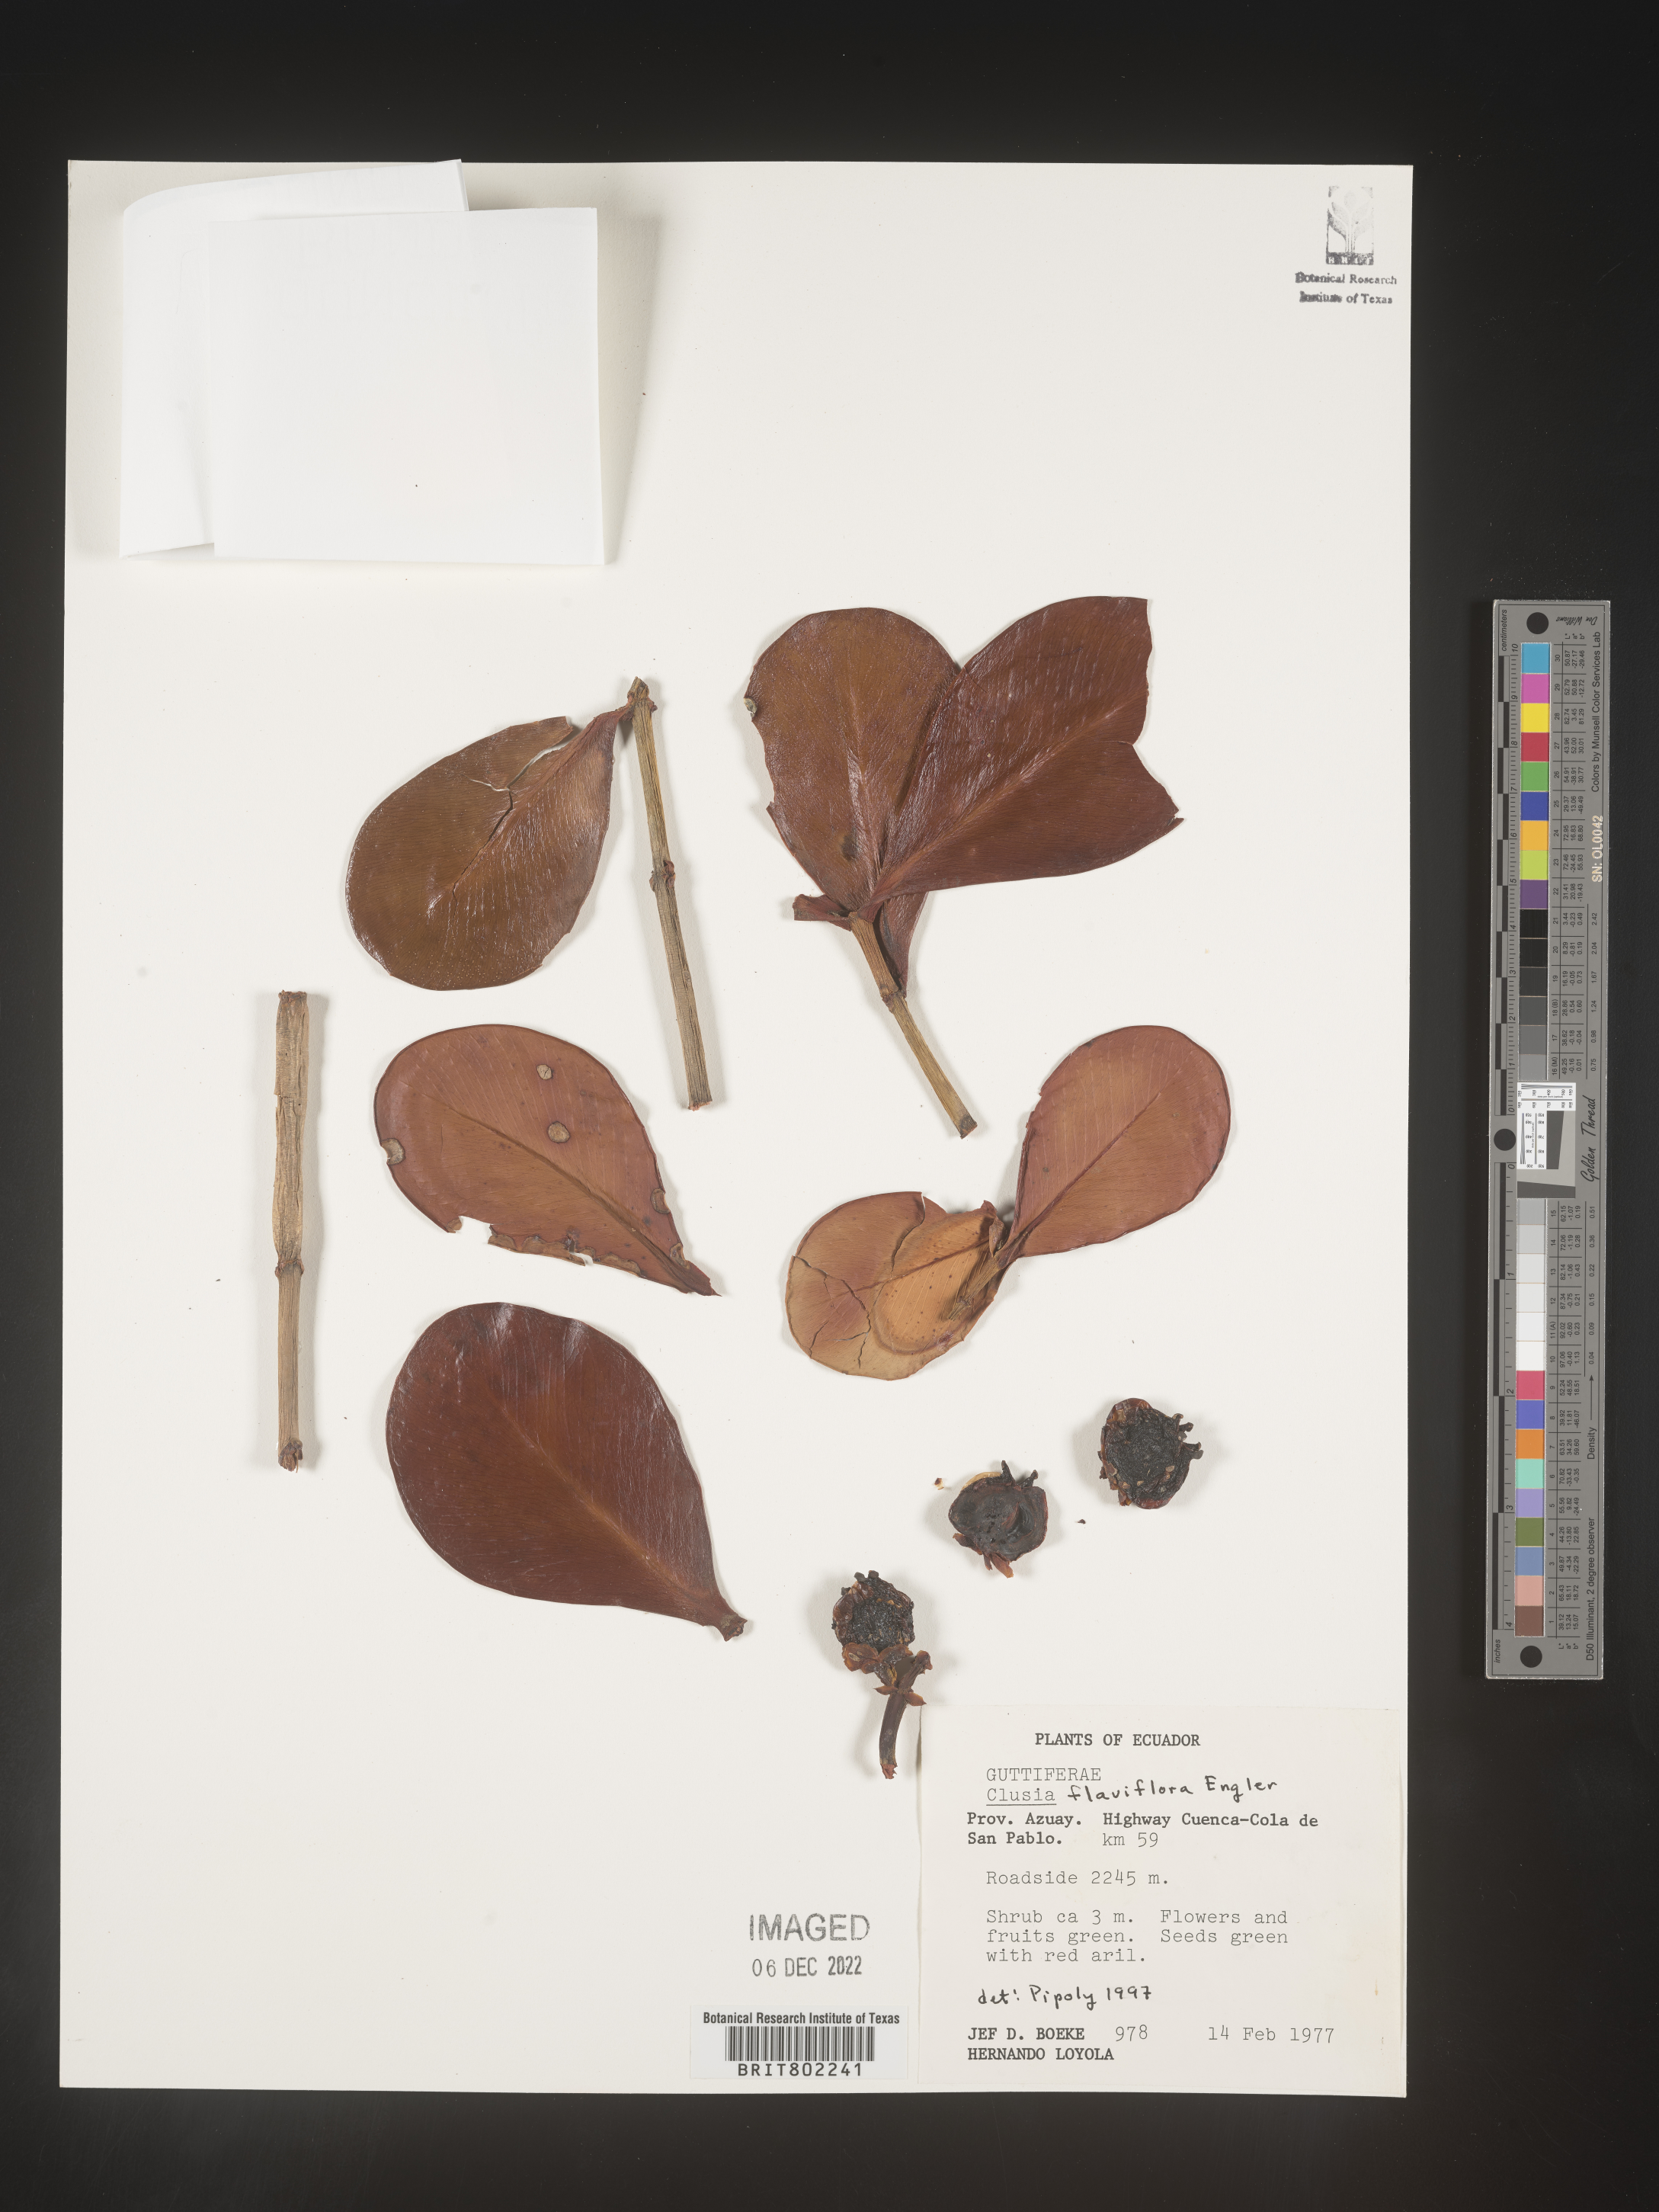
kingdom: Plantae
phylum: Tracheophyta
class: Magnoliopsida
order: Malpighiales
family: Clusiaceae
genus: Clusia
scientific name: Clusia sphaerocarpa
